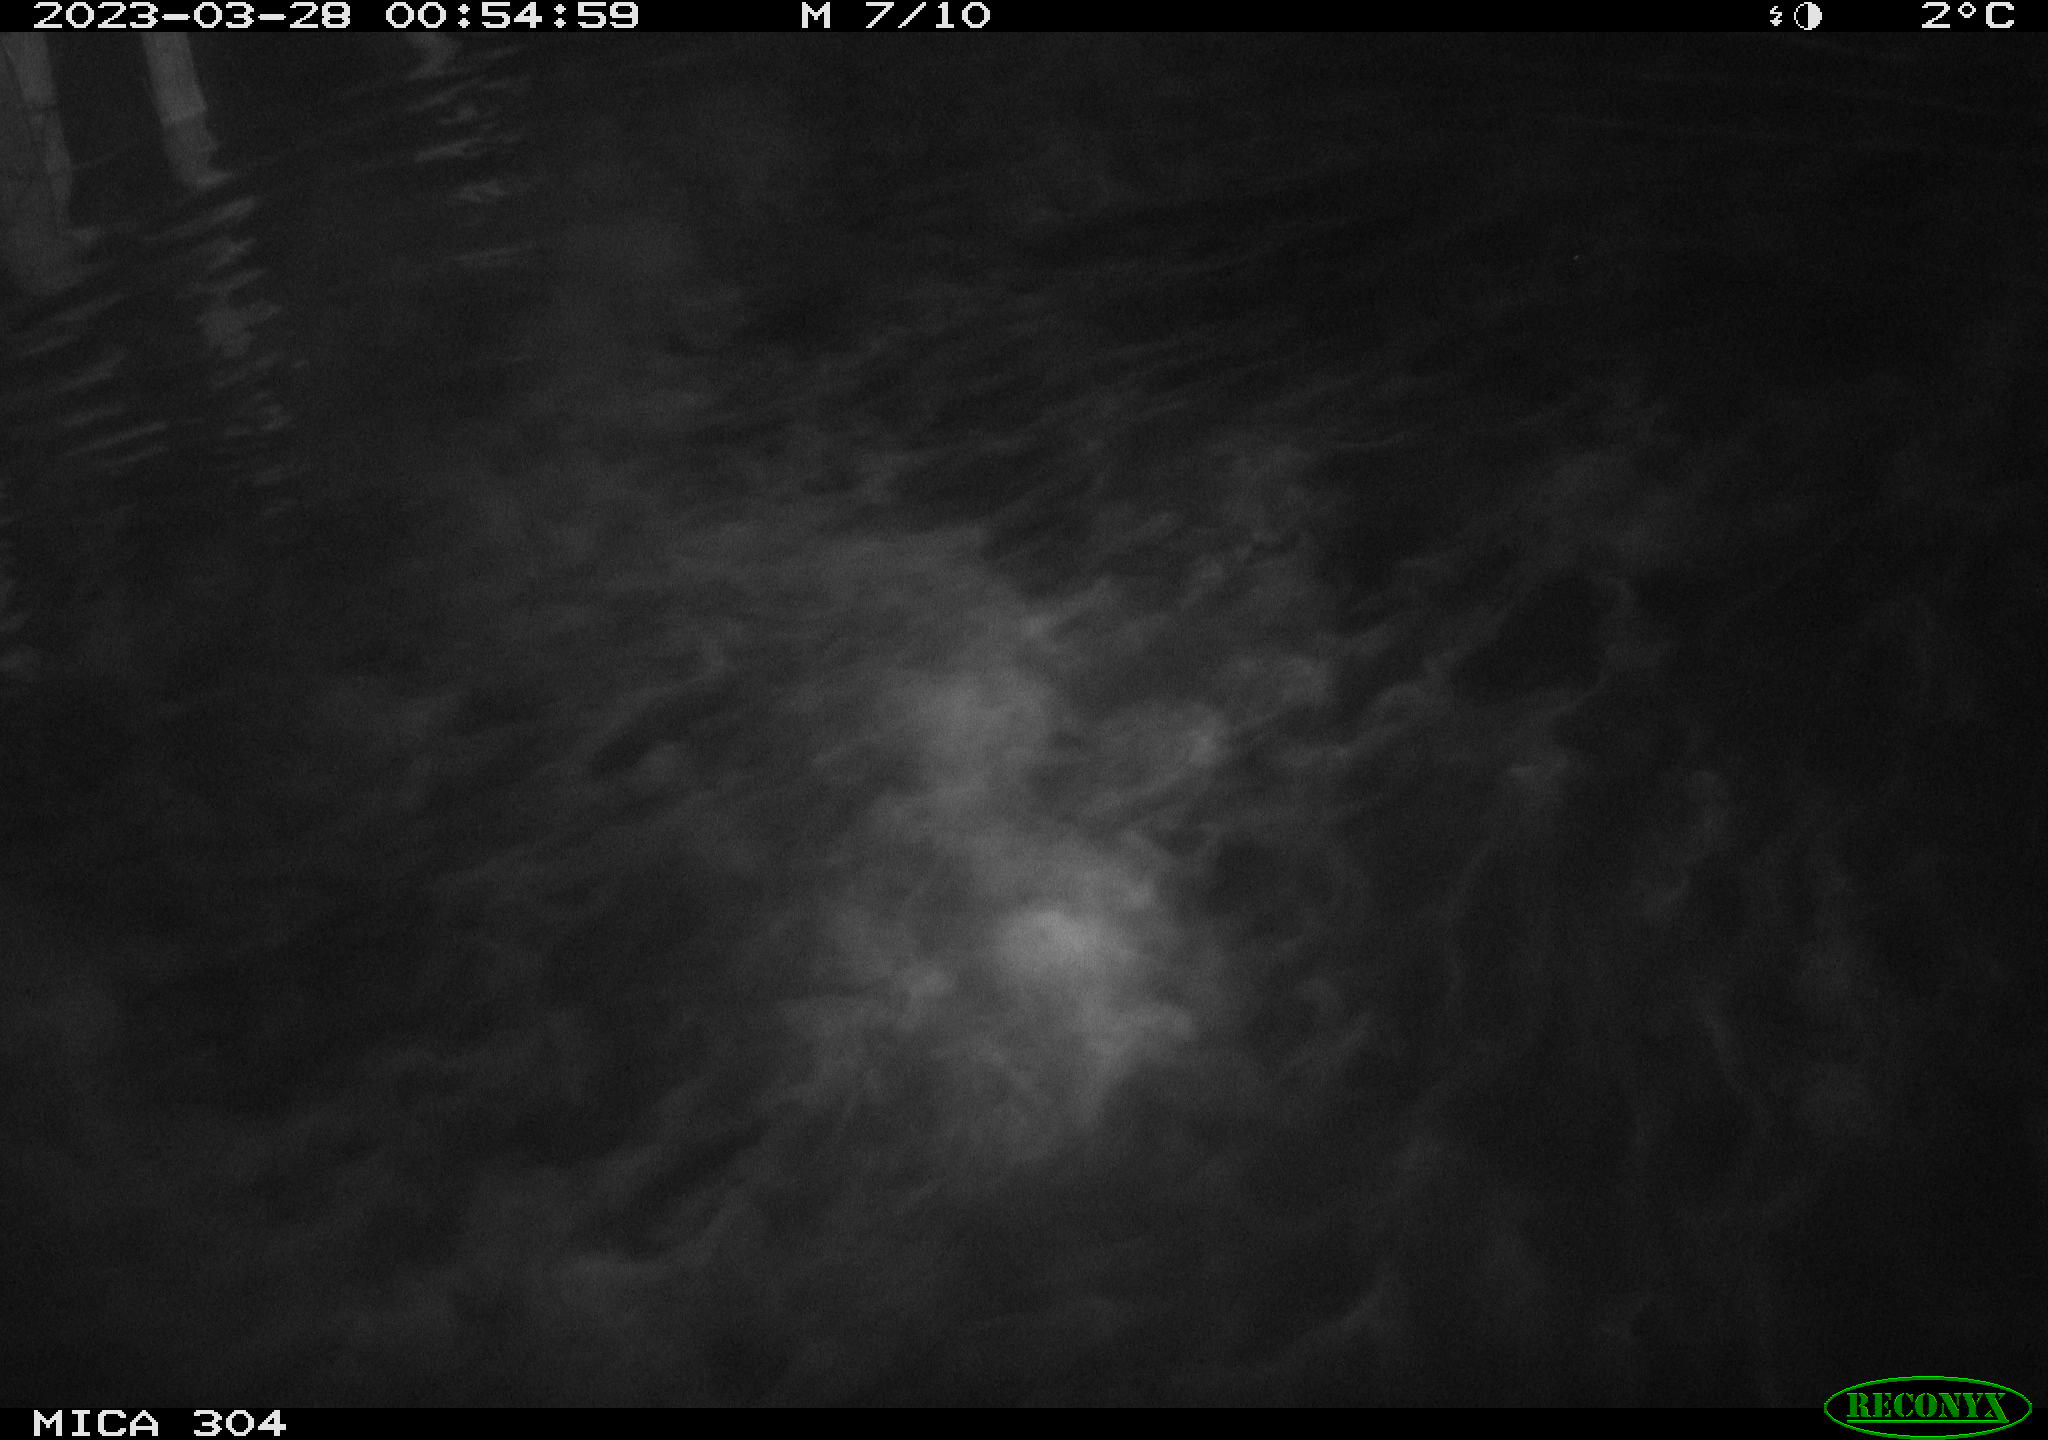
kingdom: Animalia
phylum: Chordata
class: Aves
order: Anseriformes
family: Anatidae
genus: Anas
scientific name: Anas
